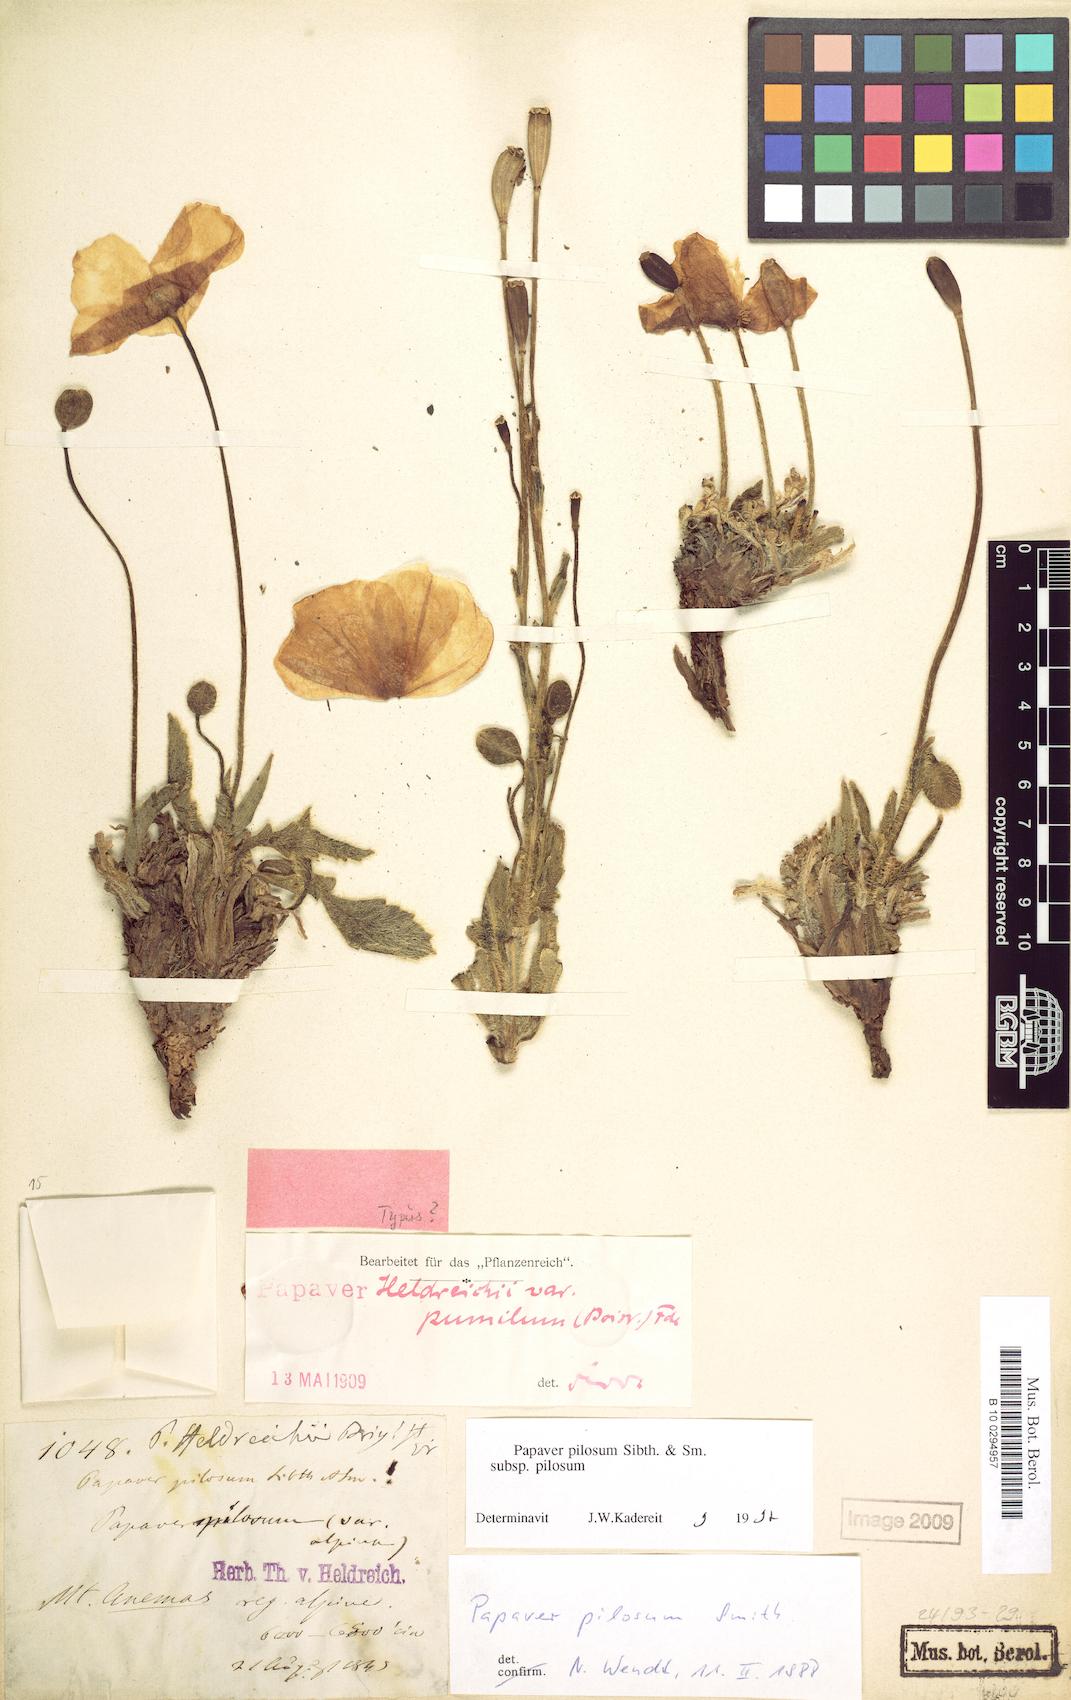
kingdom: Plantae
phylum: Tracheophyta
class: Magnoliopsida
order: Ranunculales
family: Papaveraceae
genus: Papaver
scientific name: Papaver pilosum
